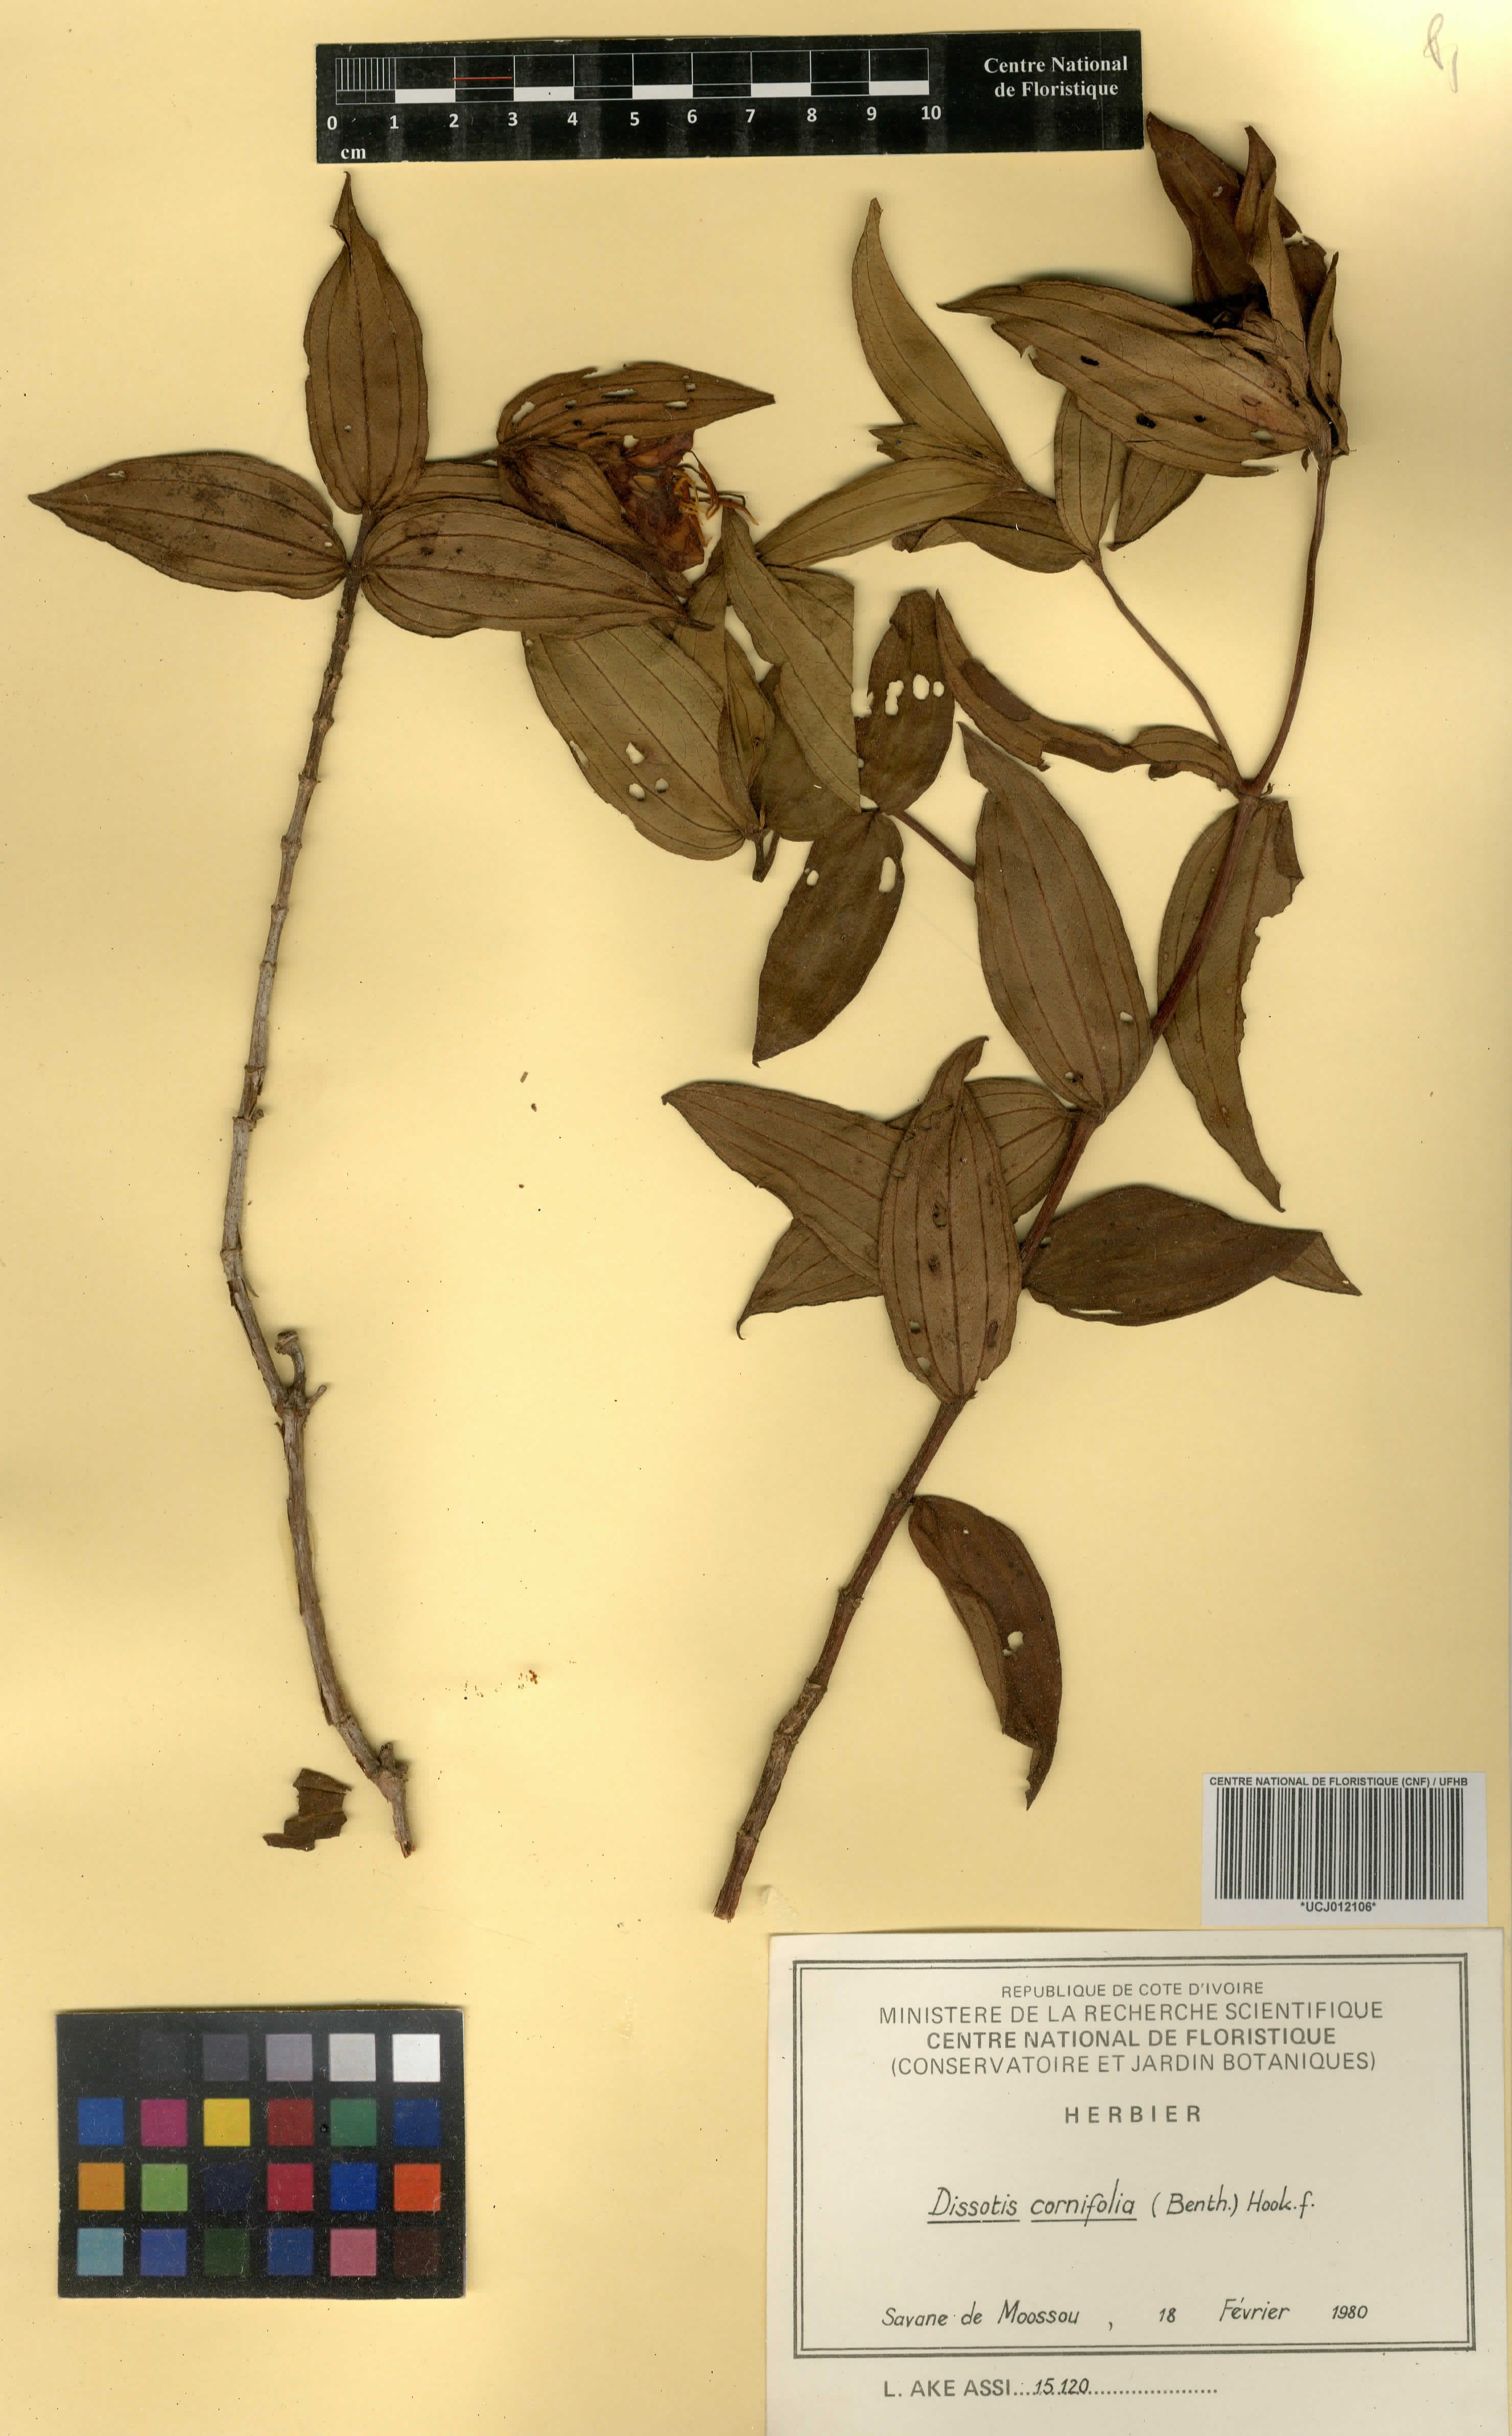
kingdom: Plantae
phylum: Tracheophyta
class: Magnoliopsida
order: Myrtales
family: Melastomataceae
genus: Melastomastrum
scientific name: Melastomastrum cornifolium
